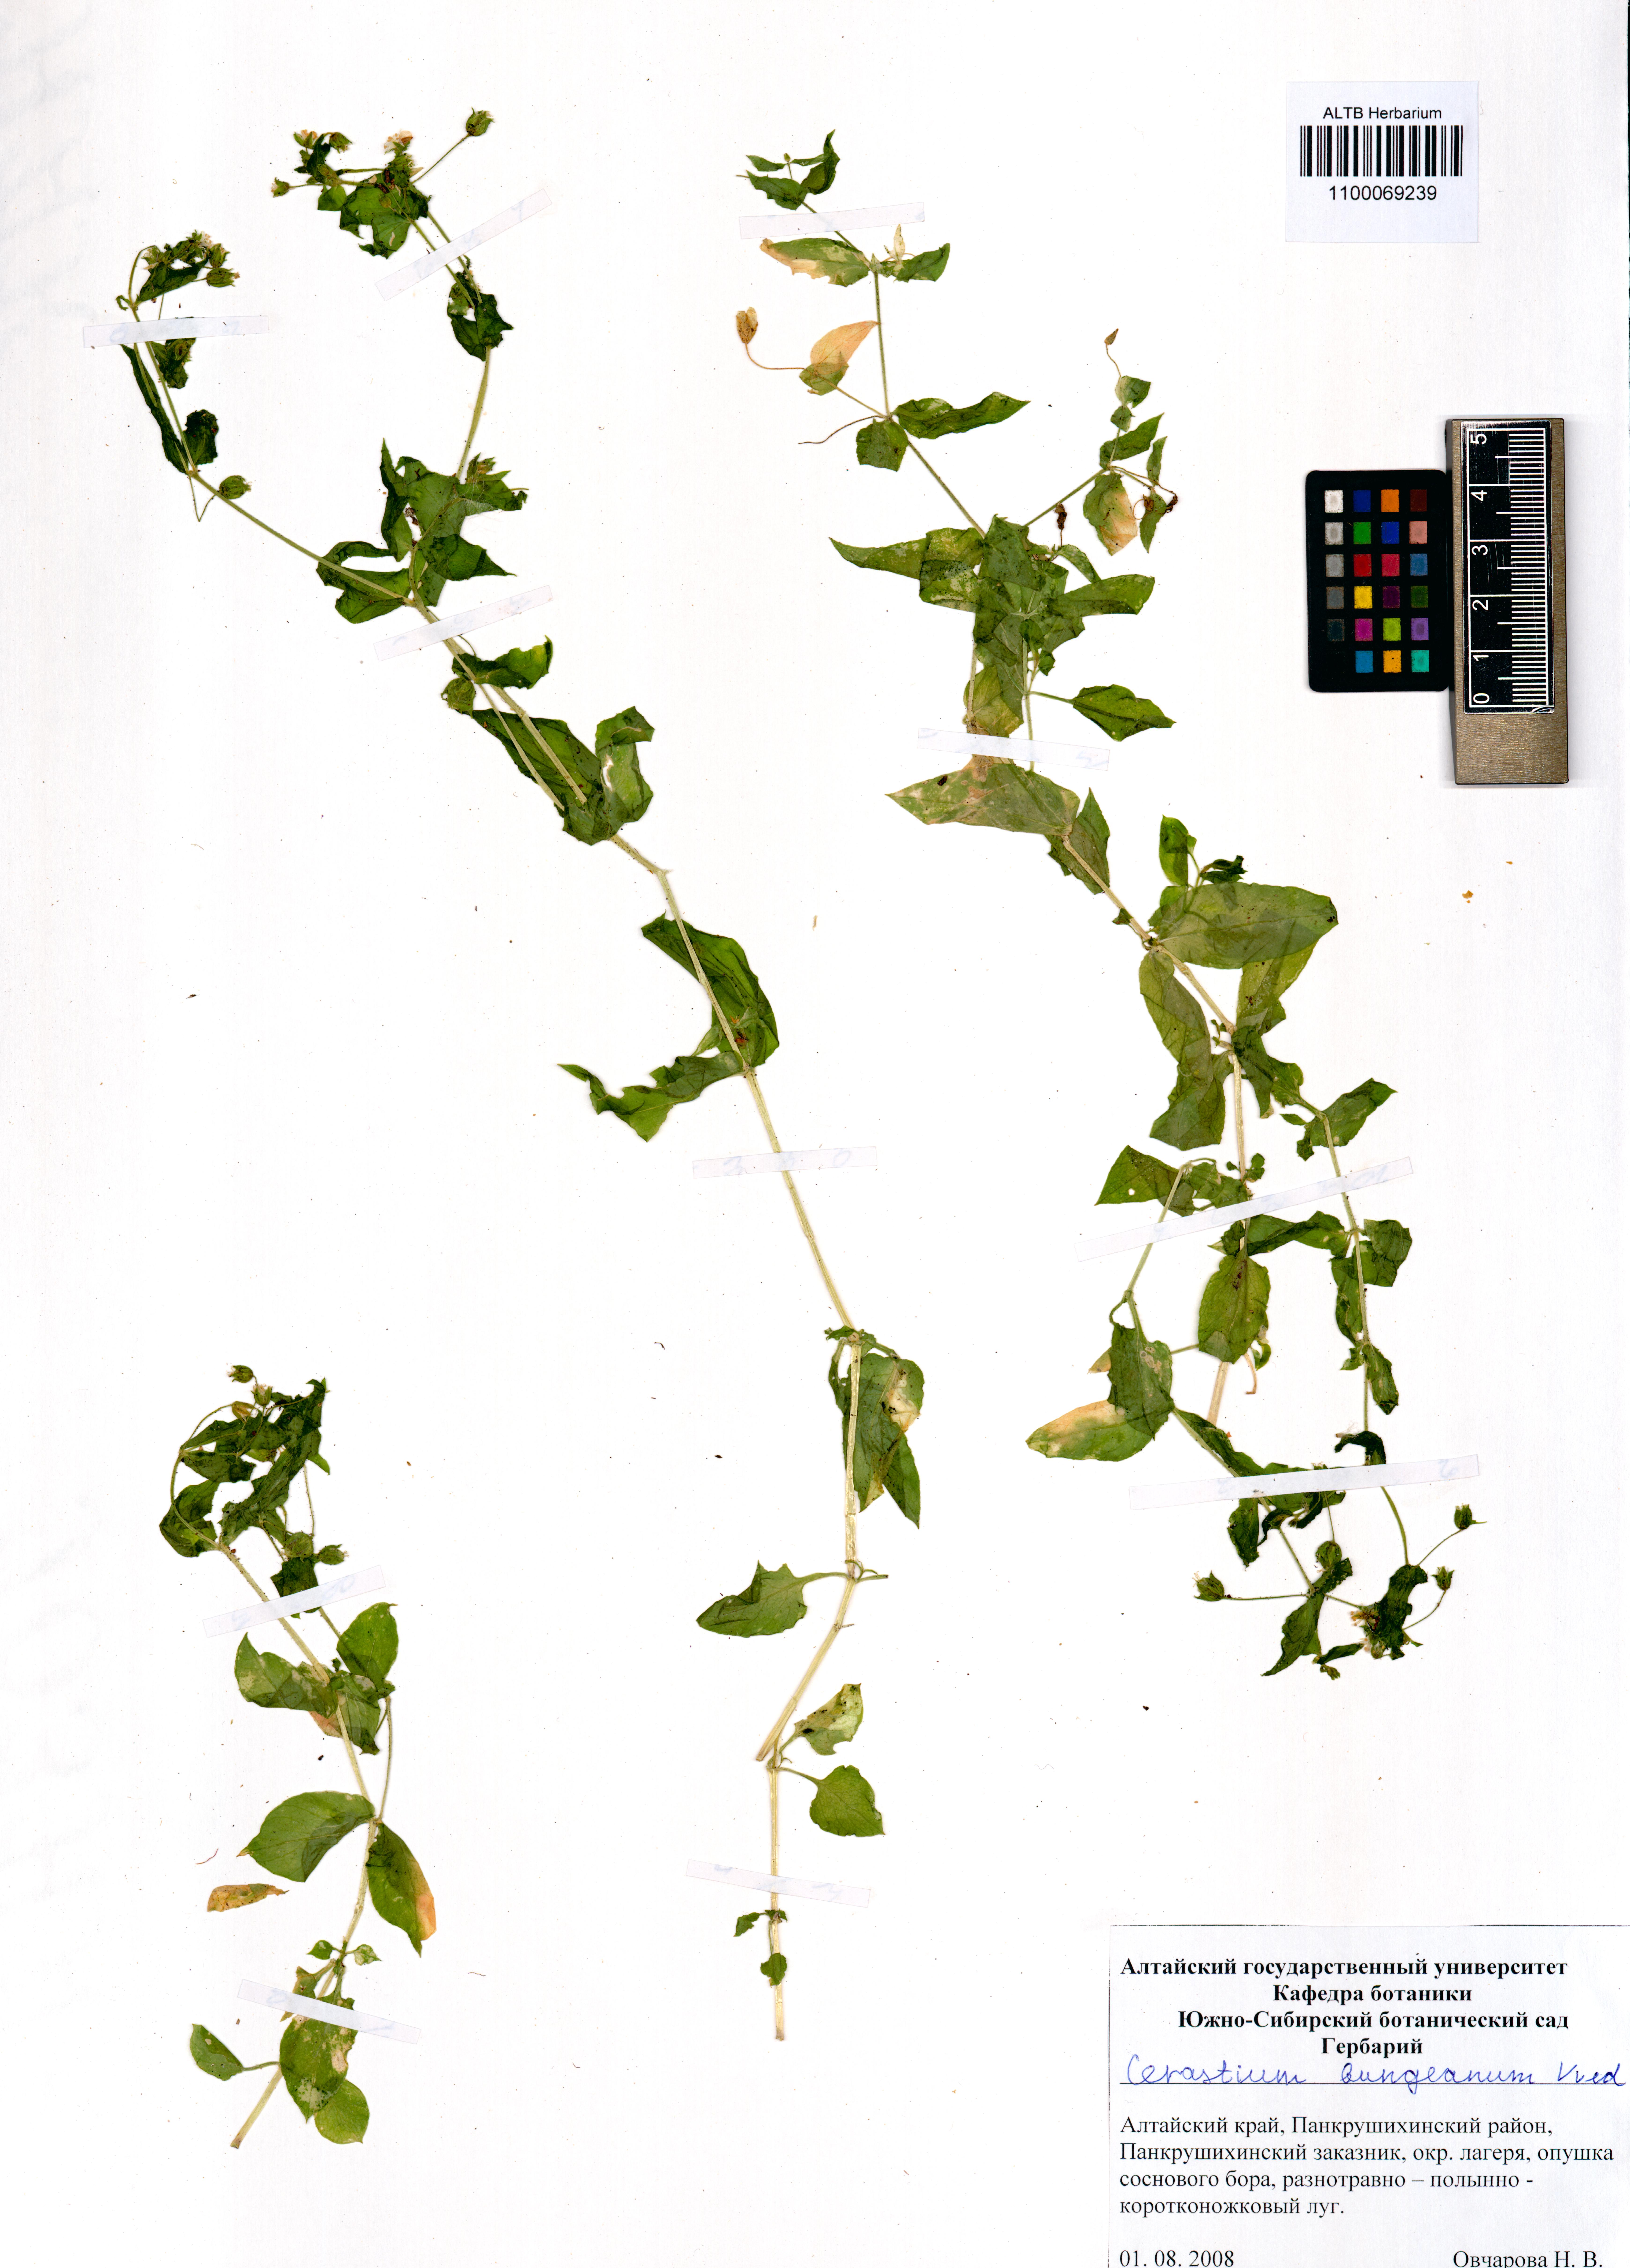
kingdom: Plantae
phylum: Tracheophyta
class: Magnoliopsida
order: Caryophyllales
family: Caryophyllaceae
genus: Dichodon
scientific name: Dichodon maximum
